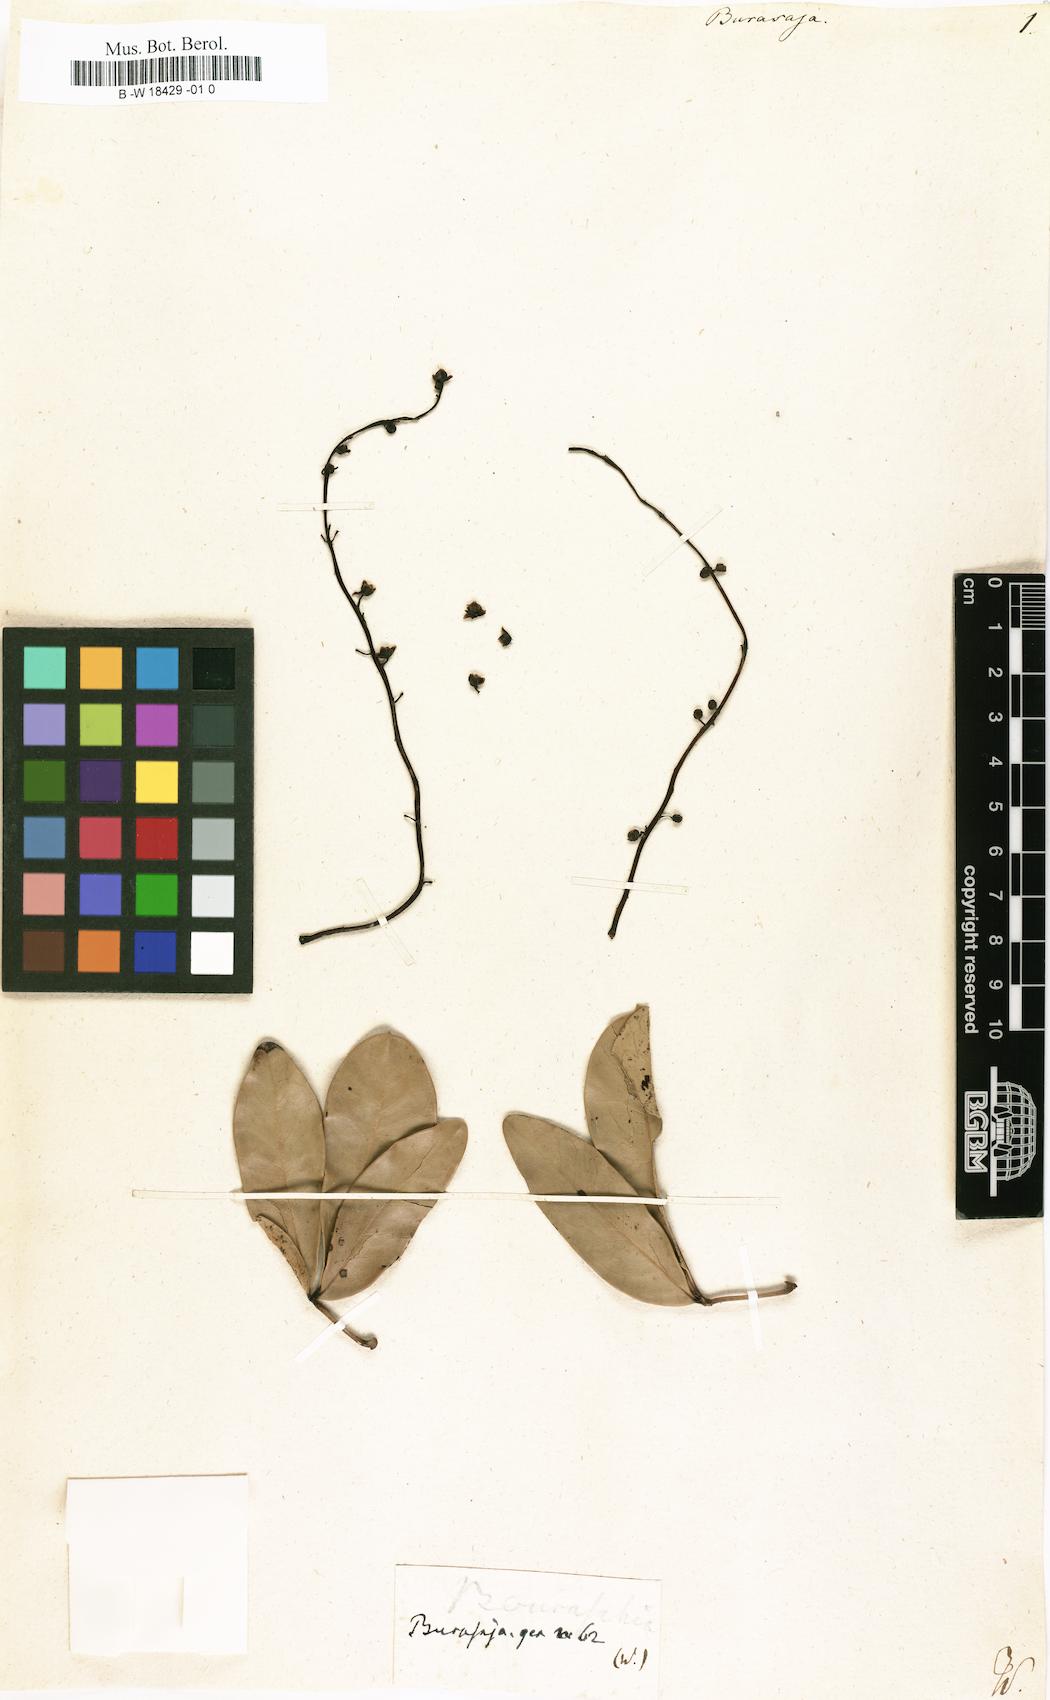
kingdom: Plantae
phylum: Tracheophyta
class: Magnoliopsida
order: Ranunculales
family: Menispermaceae
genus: Burasaia
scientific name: Burasaia
